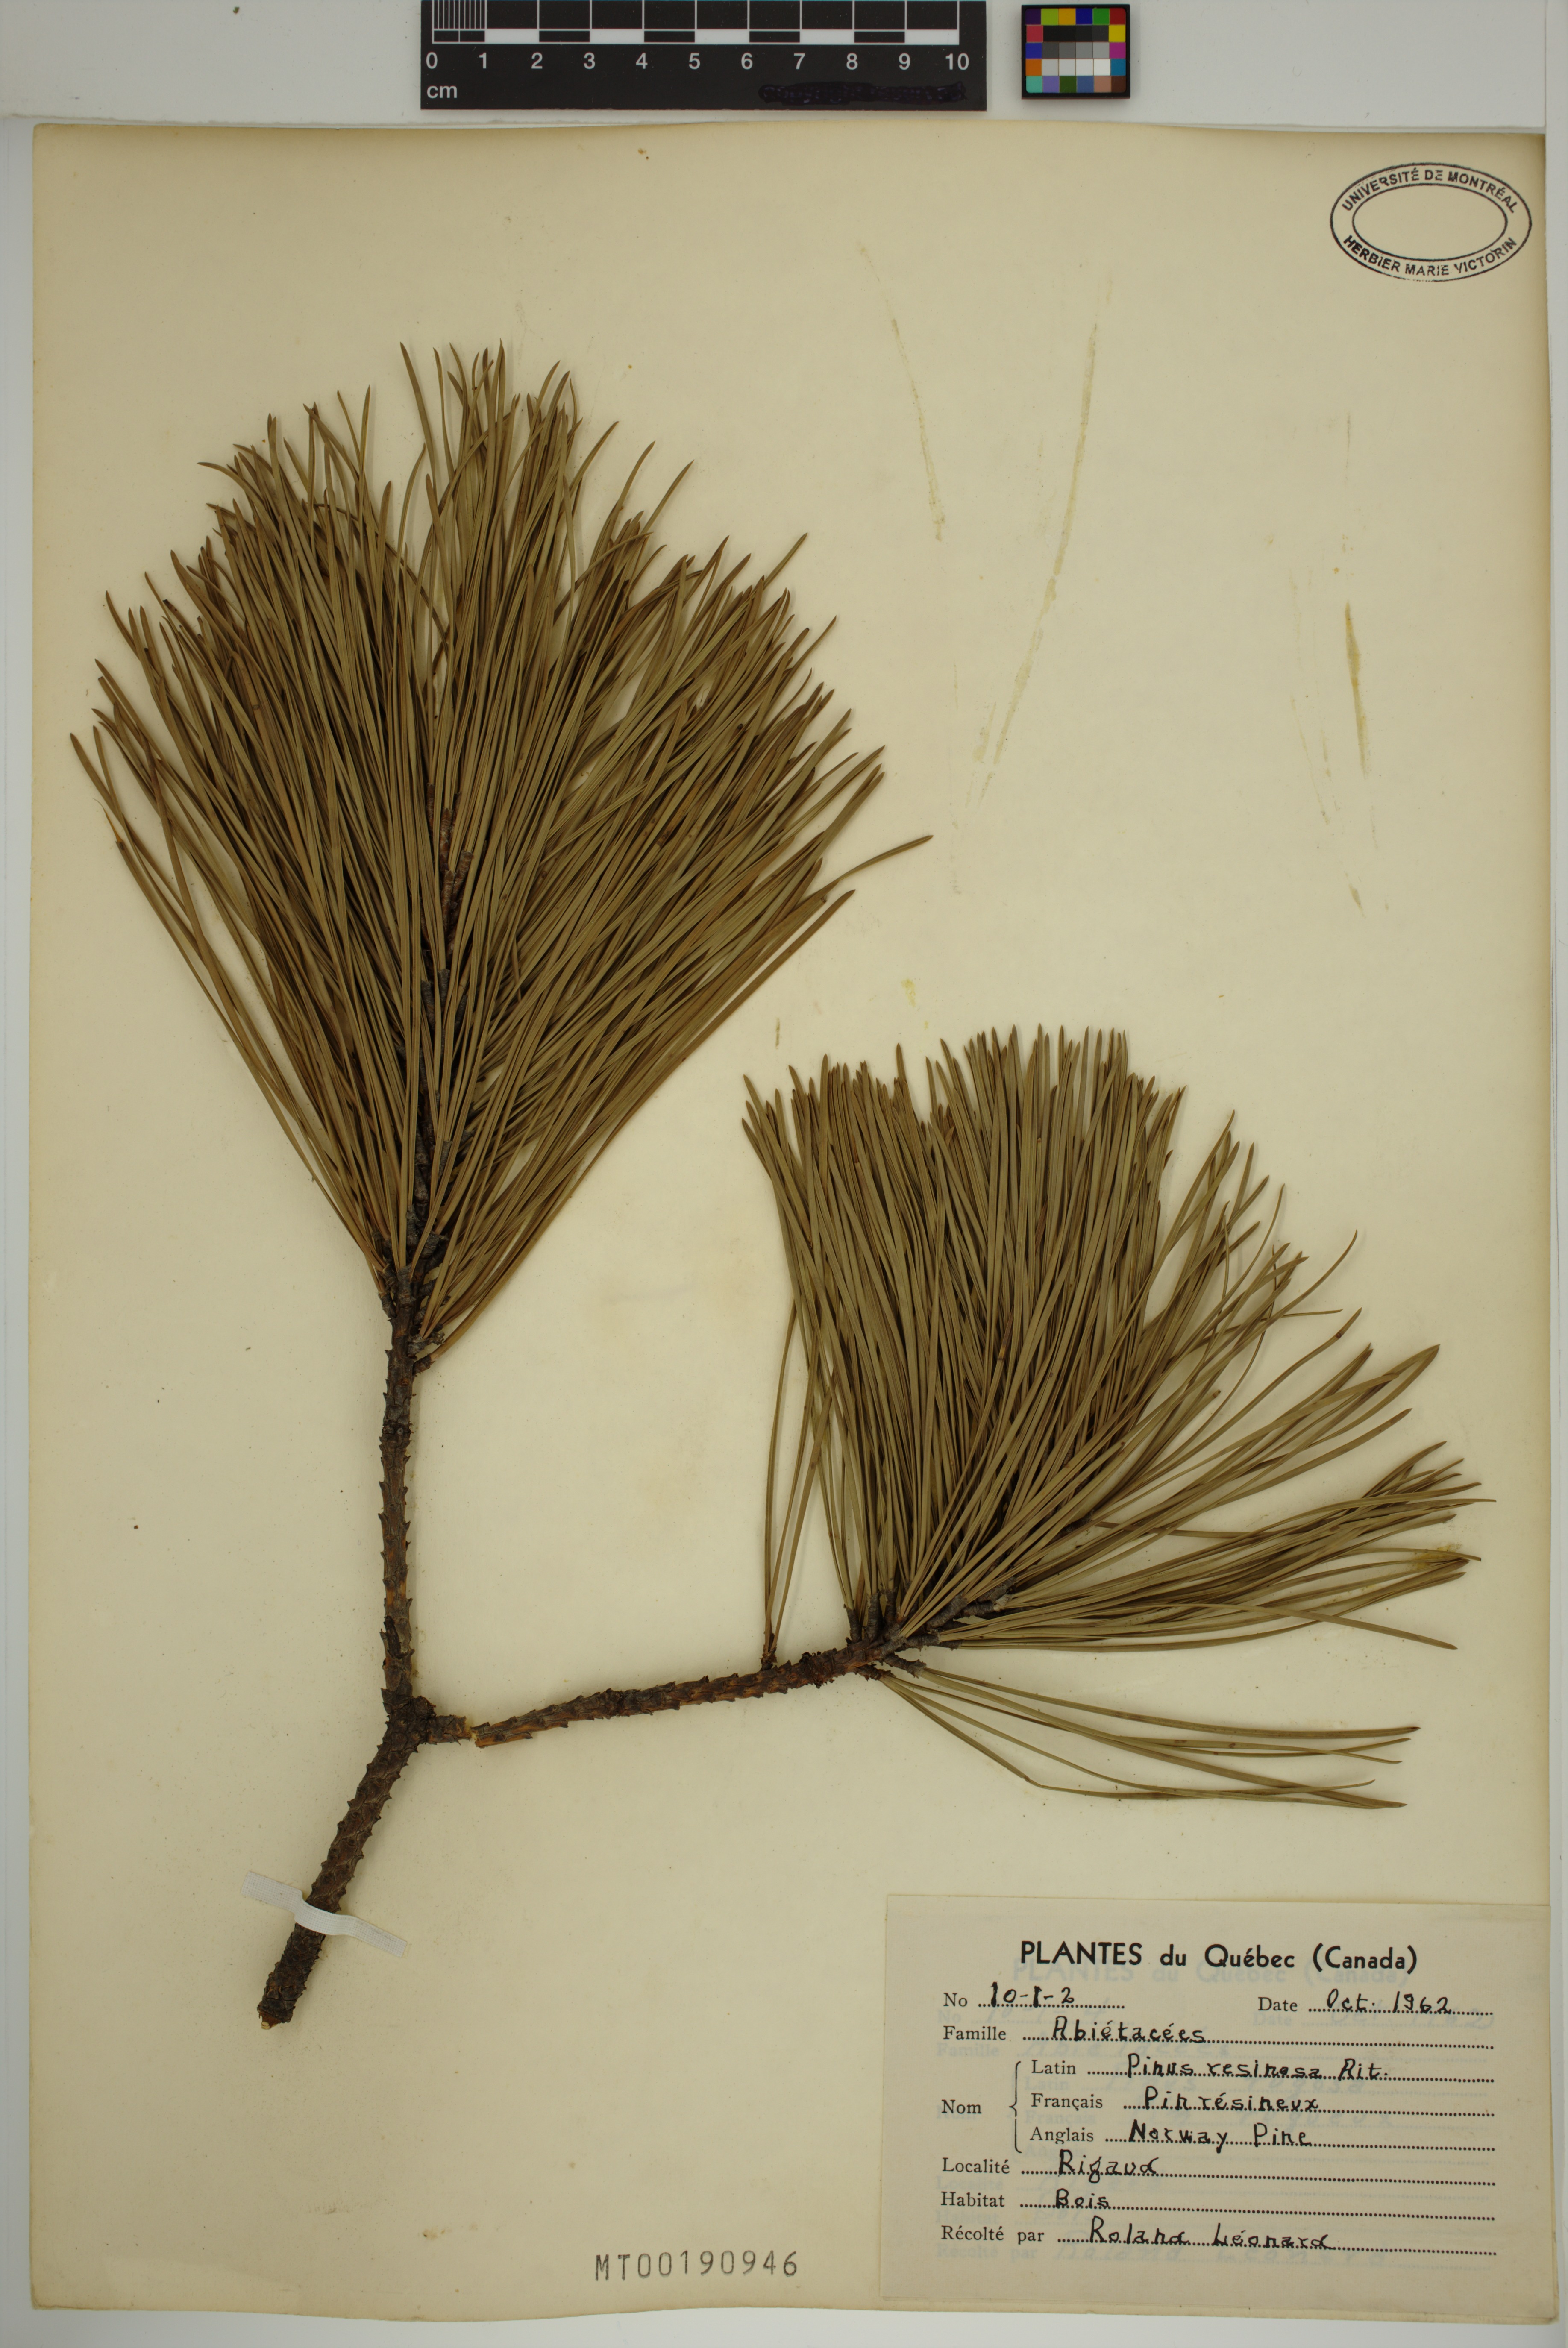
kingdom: Plantae
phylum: Tracheophyta
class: Pinopsida
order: Pinales
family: Pinaceae
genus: Pinus
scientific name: Pinus resinosa
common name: Norway pine
